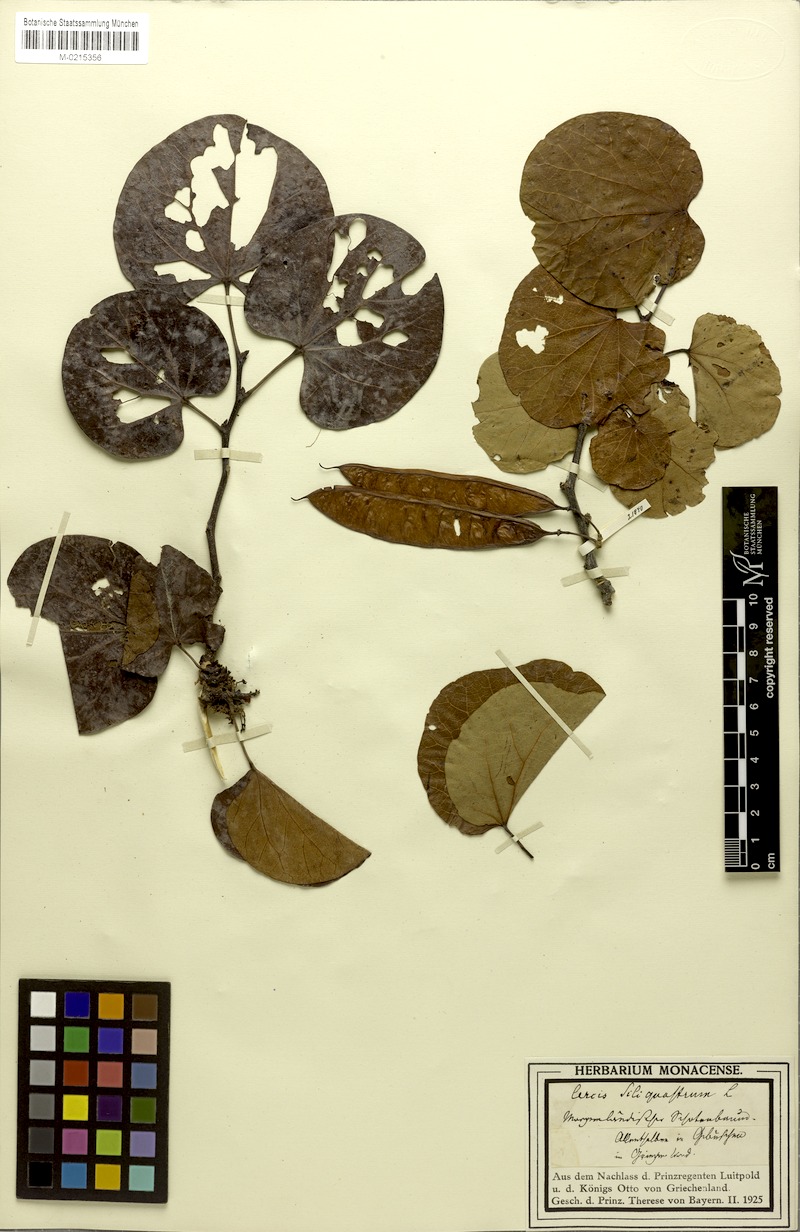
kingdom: Plantae
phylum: Tracheophyta
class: Magnoliopsida
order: Fabales
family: Fabaceae
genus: Cercis
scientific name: Cercis siliquastrum
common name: Judas tree
